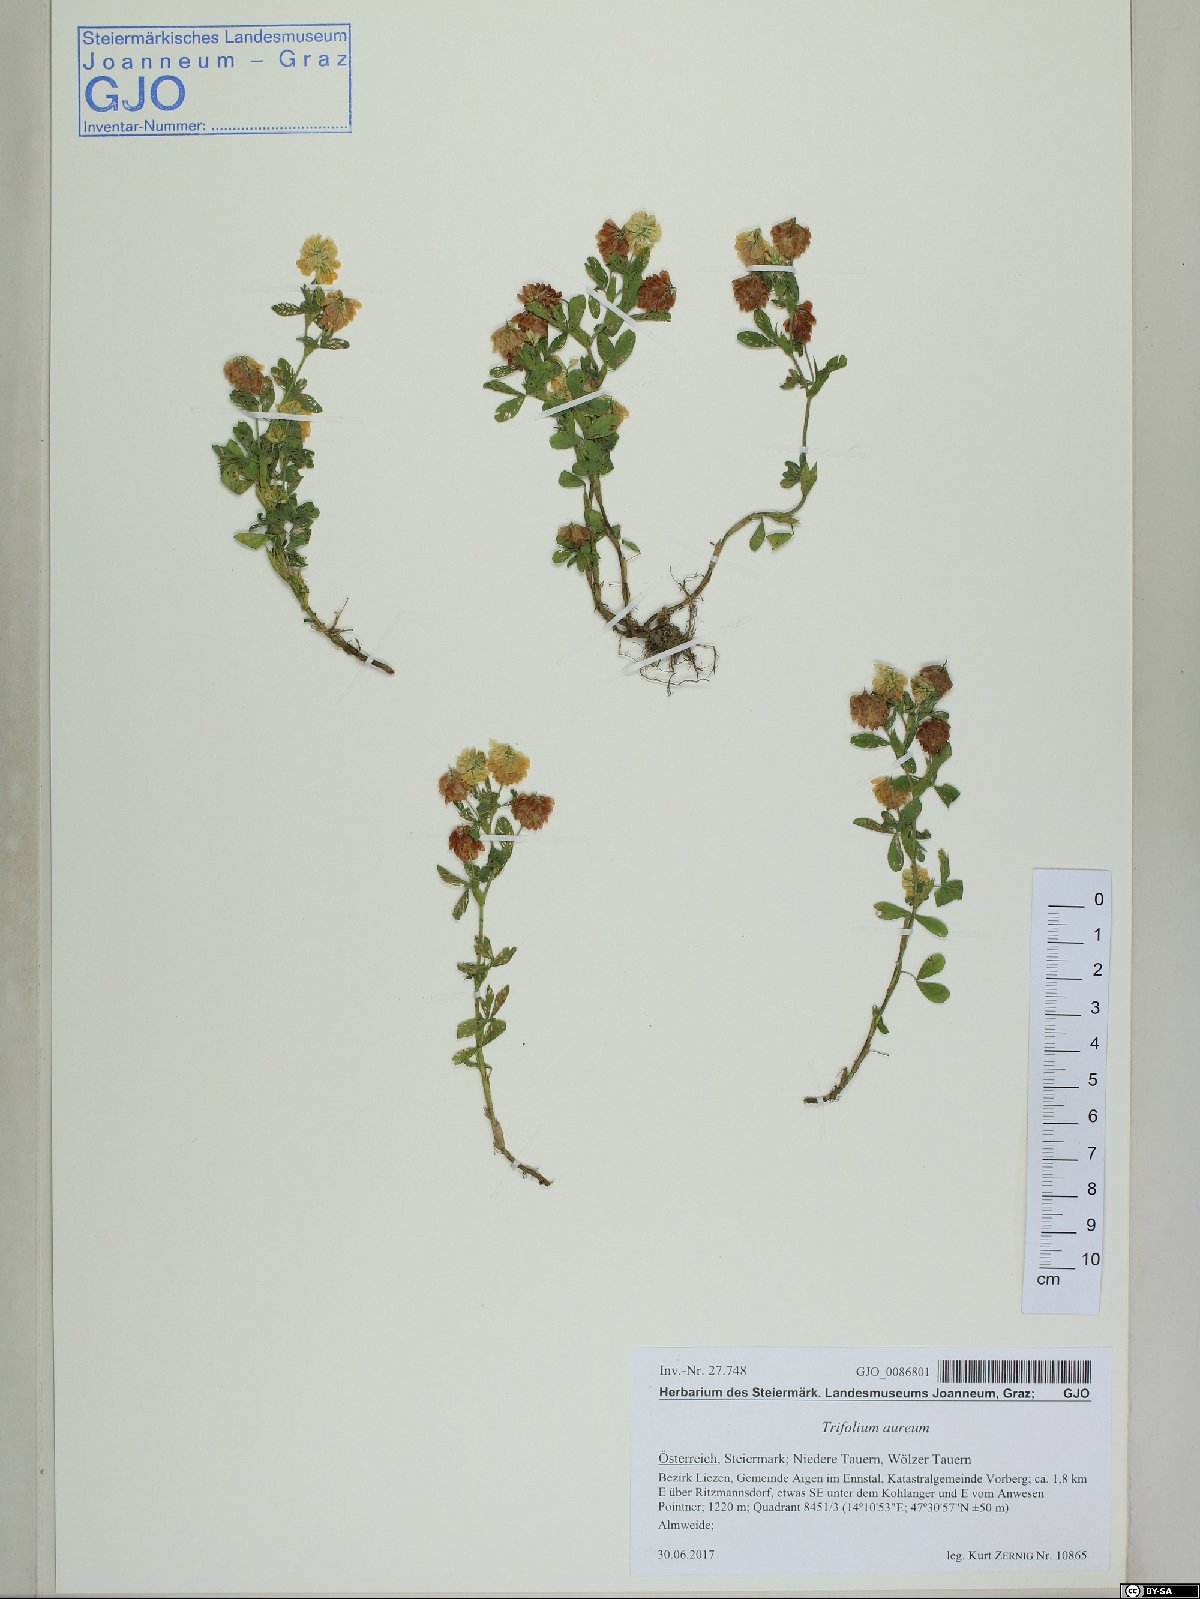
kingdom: Plantae
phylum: Tracheophyta
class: Magnoliopsida
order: Fabales
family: Fabaceae
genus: Trifolium
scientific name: Trifolium aureum
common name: Golden clover
